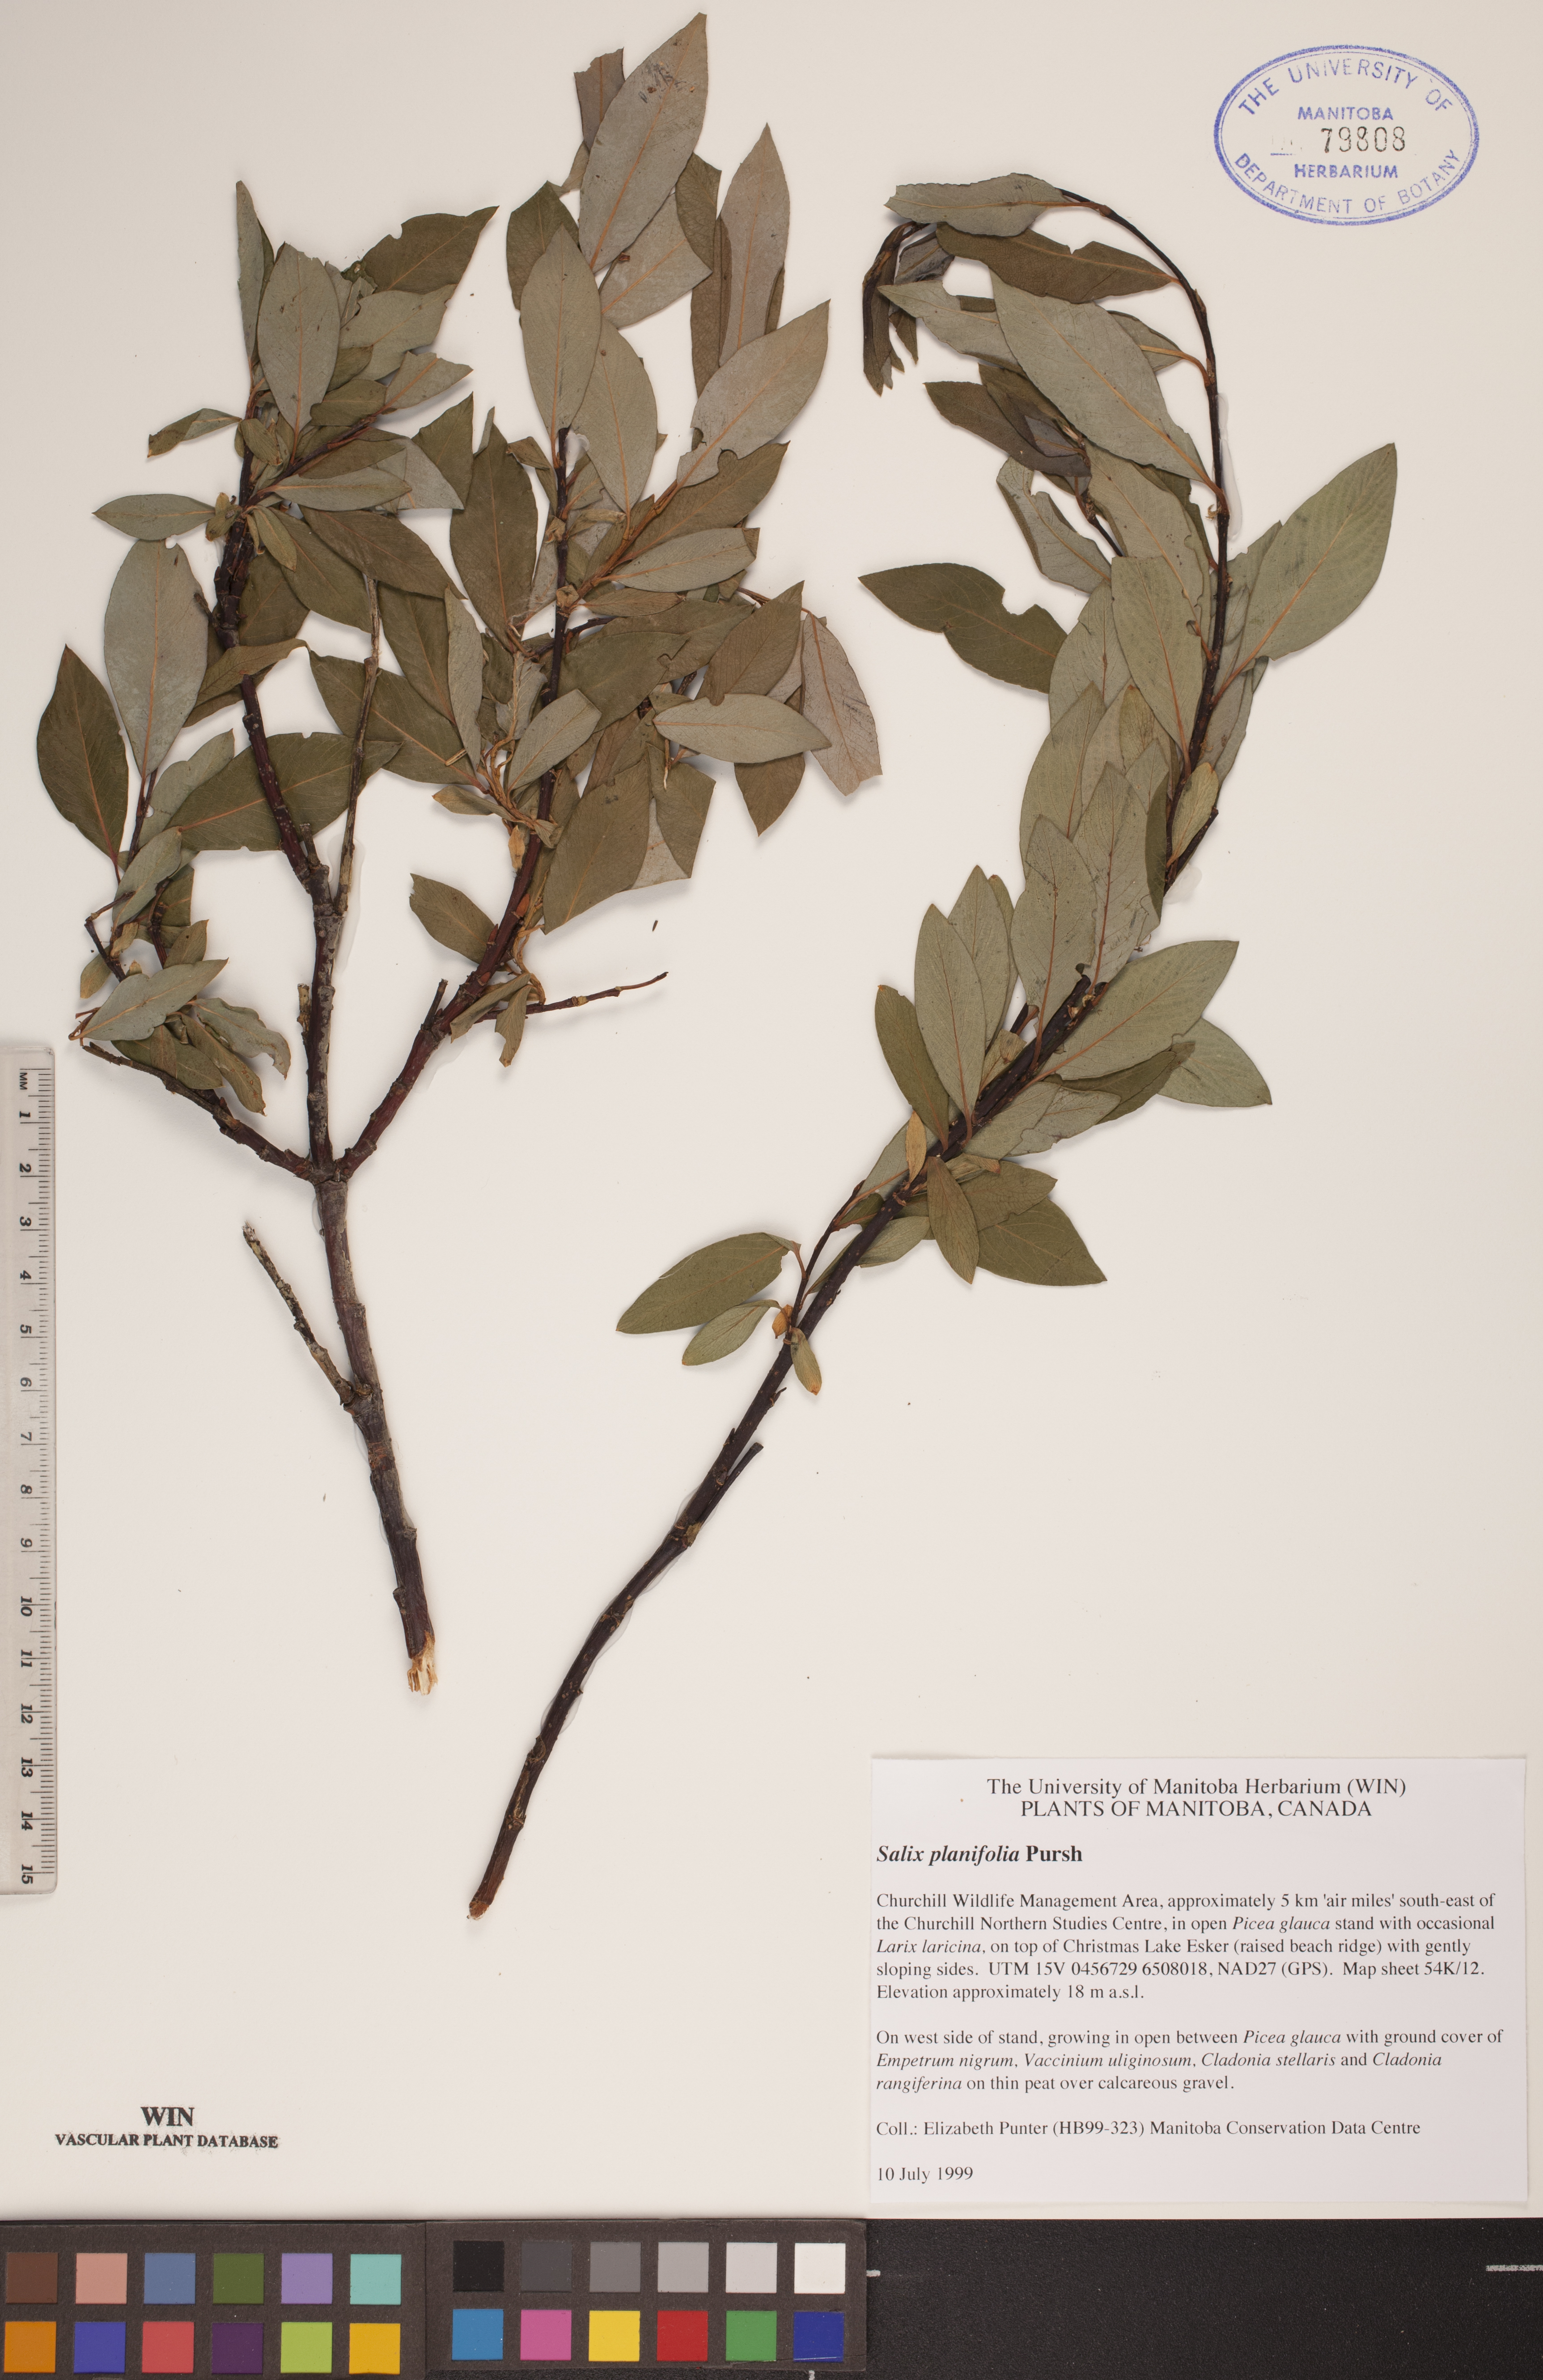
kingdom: Plantae
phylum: Tracheophyta
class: Magnoliopsida
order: Malpighiales
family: Salicaceae
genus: Salix
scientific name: Salix planifolia
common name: Mountain willow
